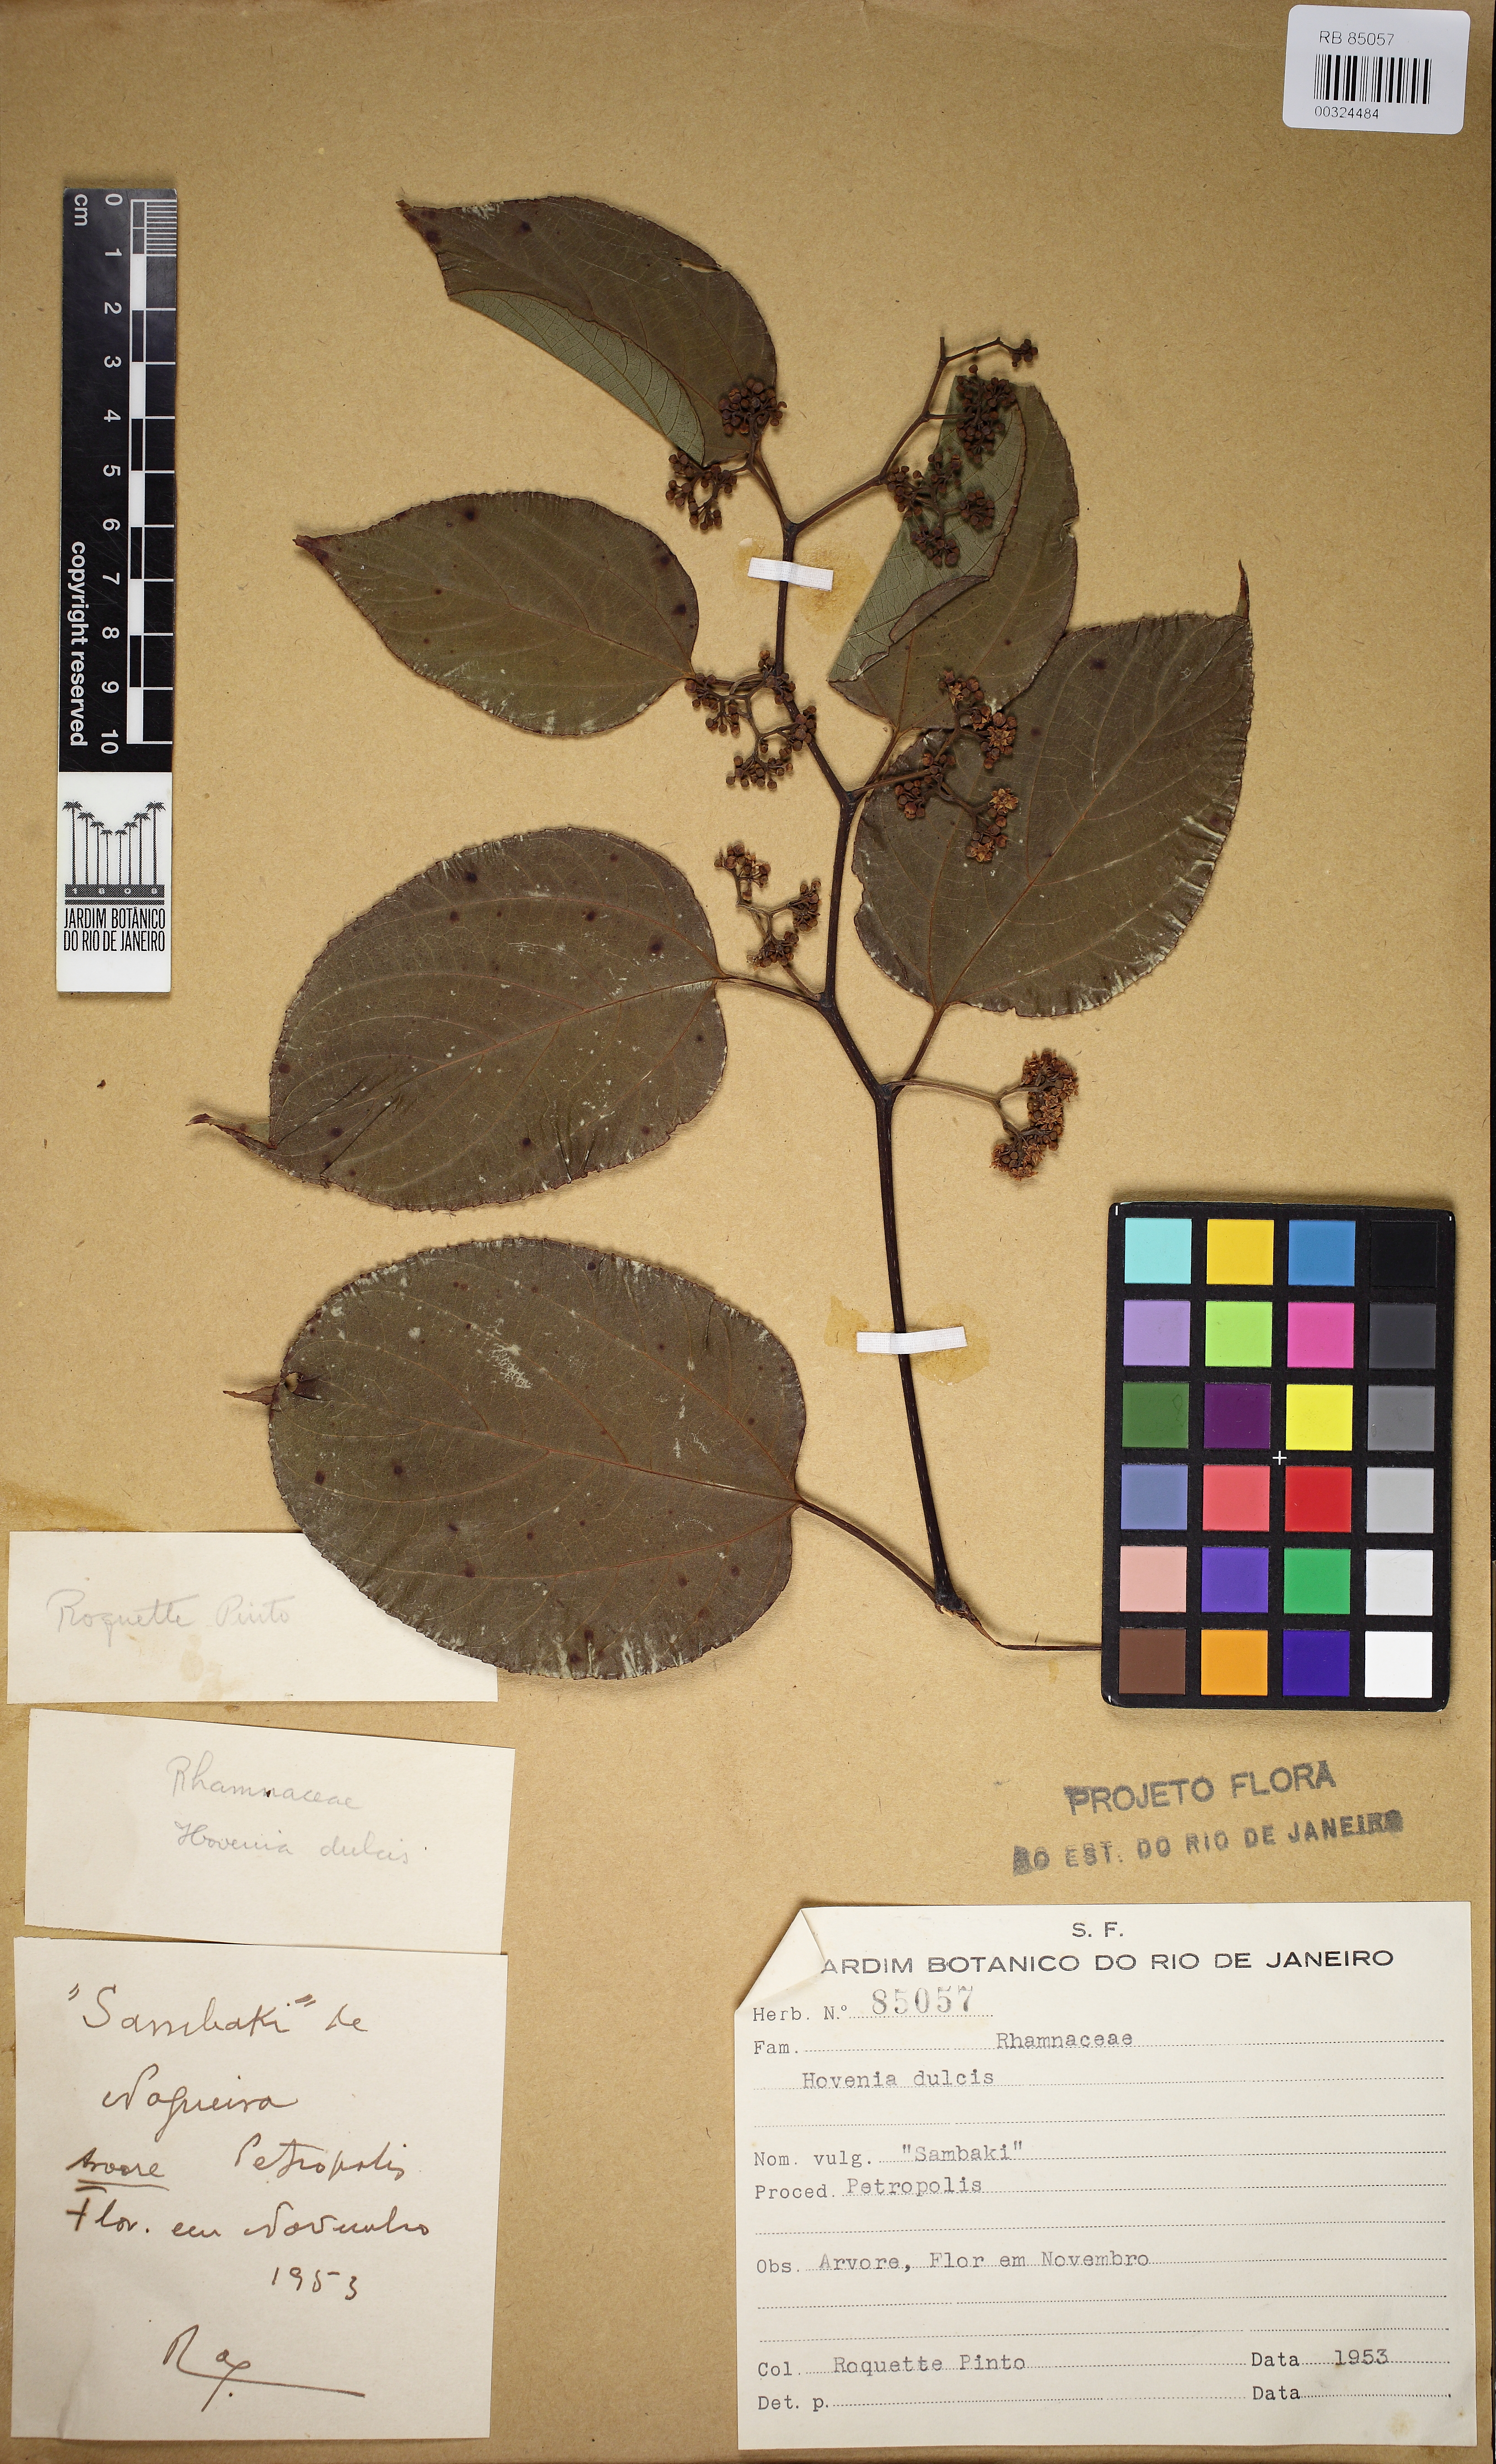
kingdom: Plantae
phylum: Tracheophyta
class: Magnoliopsida
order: Rosales
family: Rhamnaceae
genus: Hovenia
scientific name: Hovenia dulcis
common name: Japanese raisintree
